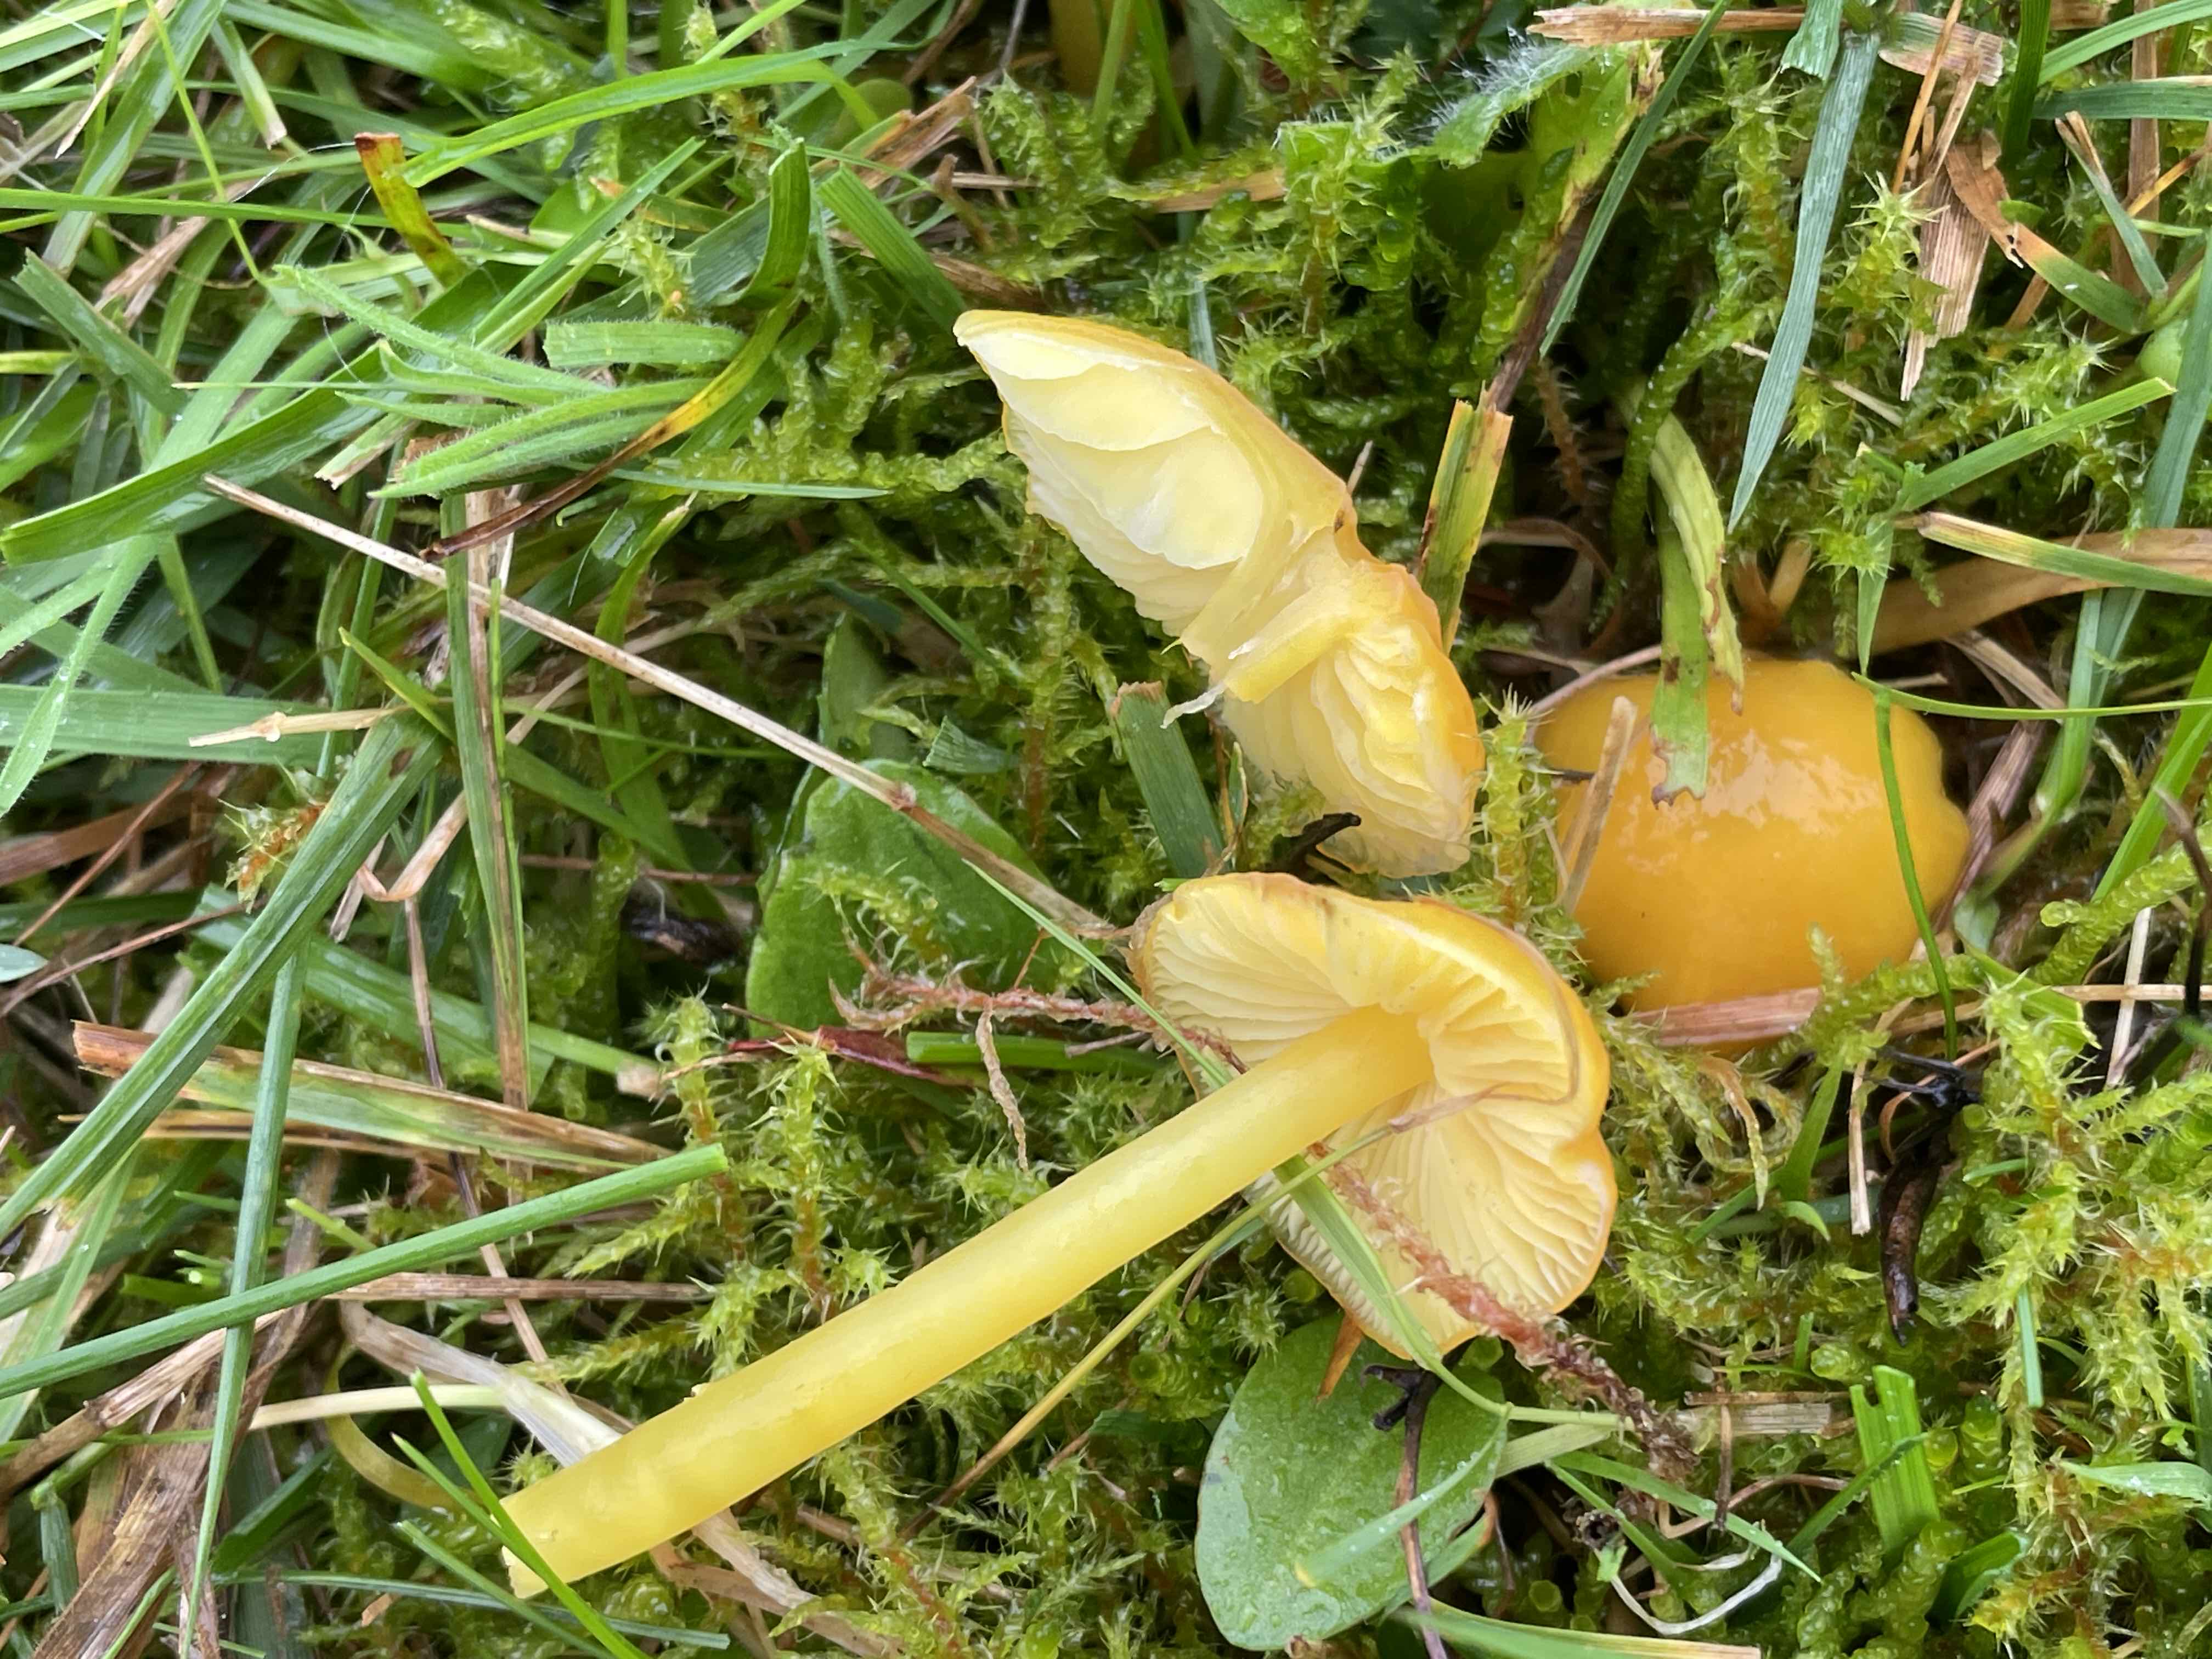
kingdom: Fungi
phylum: Basidiomycota
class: Agaricomycetes
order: Agaricales
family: Hygrophoraceae
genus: Hygrocybe
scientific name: Hygrocybe chlorophana
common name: gul vokshat
